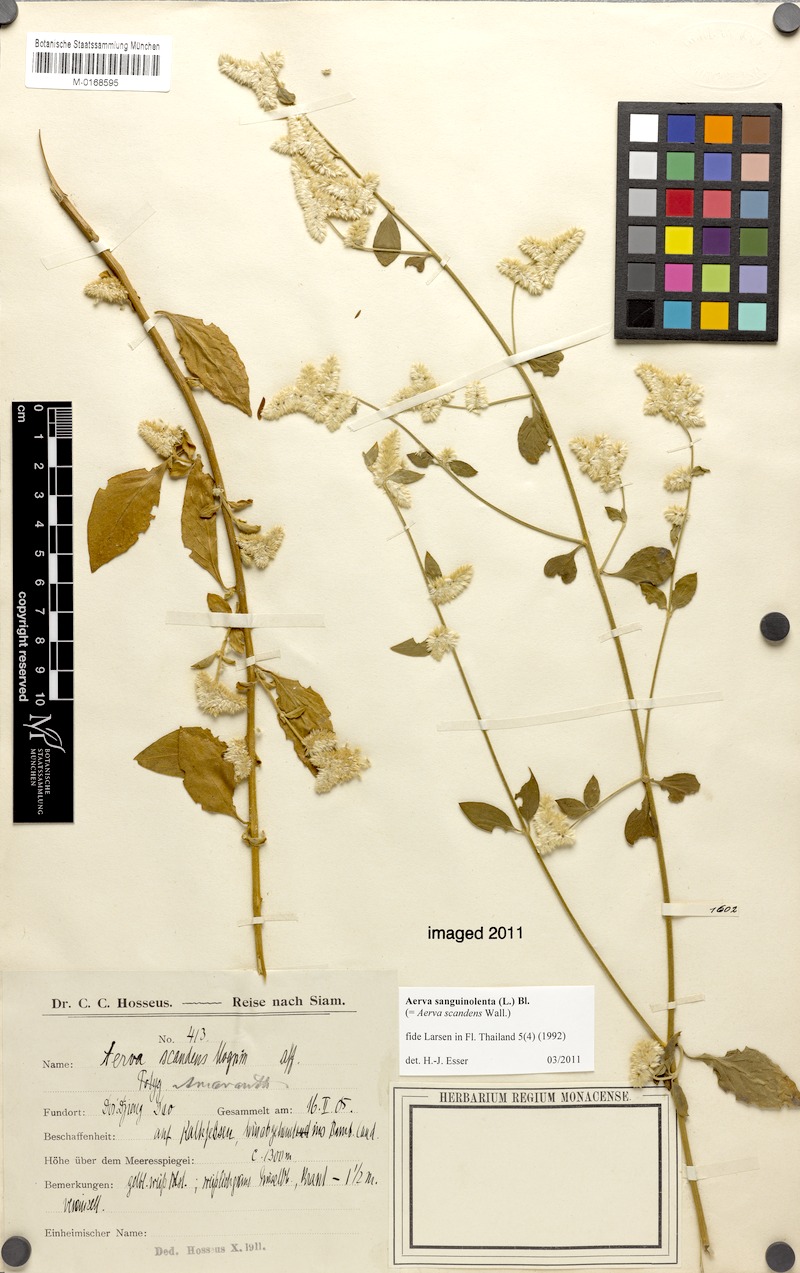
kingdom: Plantae
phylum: Tracheophyta
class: Magnoliopsida
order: Caryophyllales
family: Amaranthaceae
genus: Ouret
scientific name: Ouret sanguinolenta
